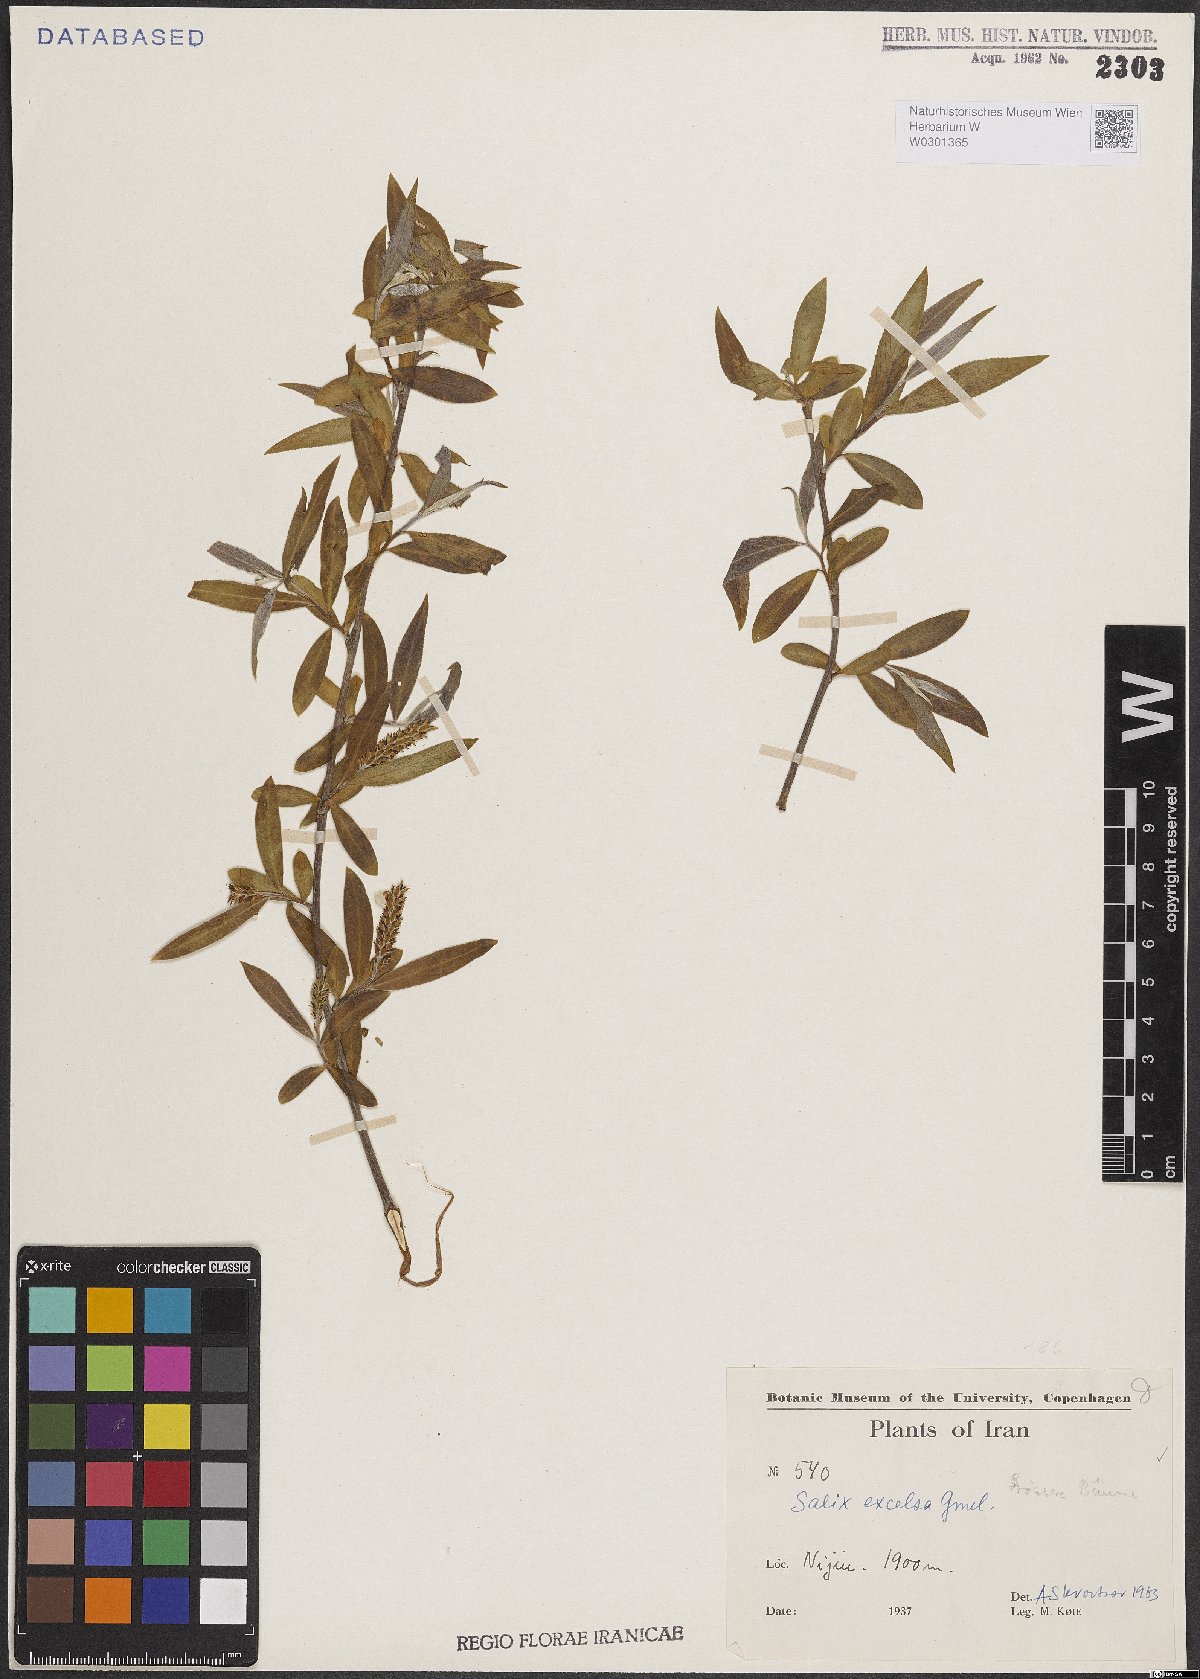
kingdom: Plantae
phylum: Tracheophyta
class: Magnoliopsida
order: Malpighiales
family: Salicaceae
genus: Salix
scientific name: Salix excelsa
